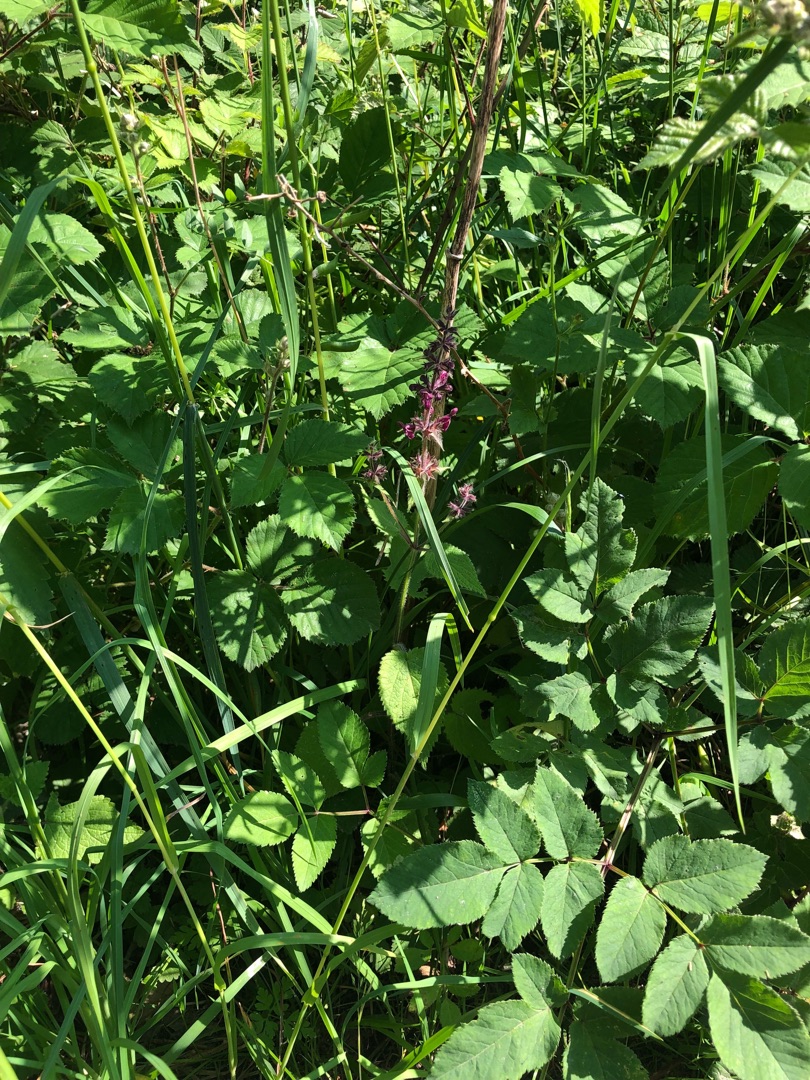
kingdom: Plantae
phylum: Tracheophyta
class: Magnoliopsida
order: Apiales
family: Apiaceae
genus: Angelica
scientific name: Angelica sylvestris
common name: Angelik
